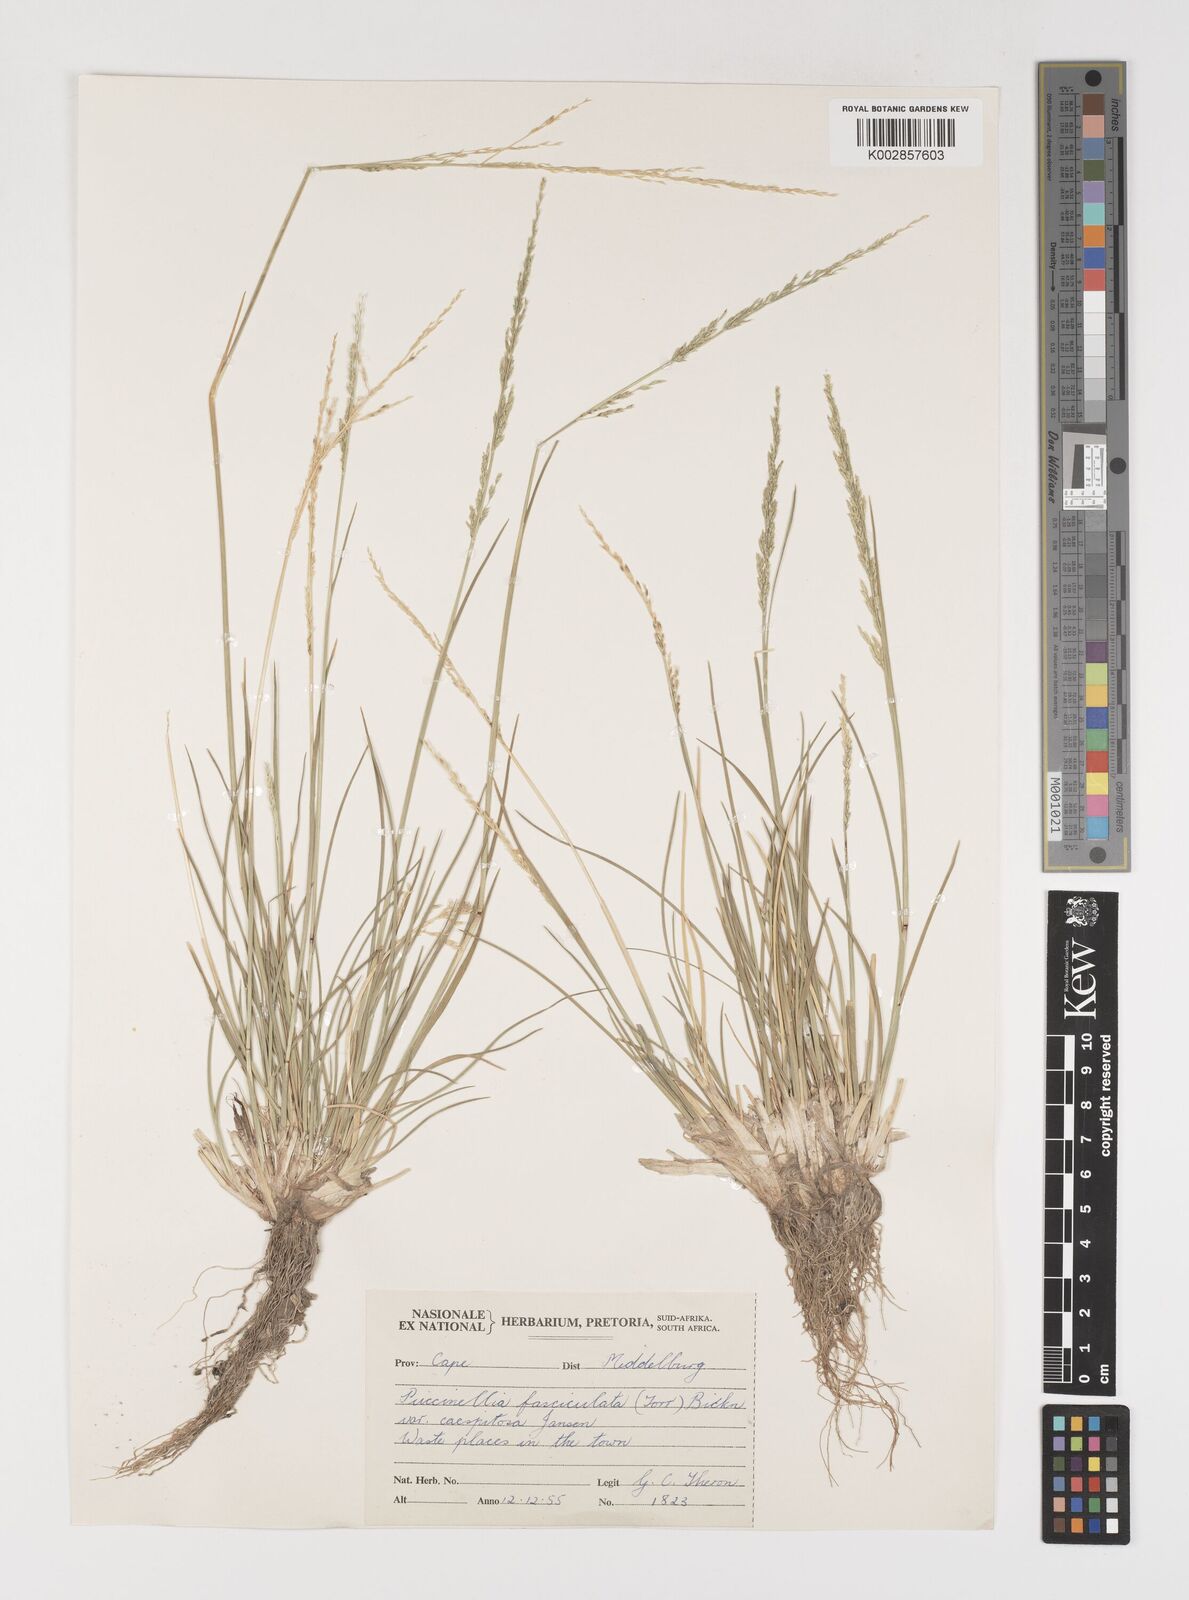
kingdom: Plantae
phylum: Tracheophyta
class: Liliopsida
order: Poales
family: Poaceae
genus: Puccinellia
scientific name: Puccinellia acroxantha
